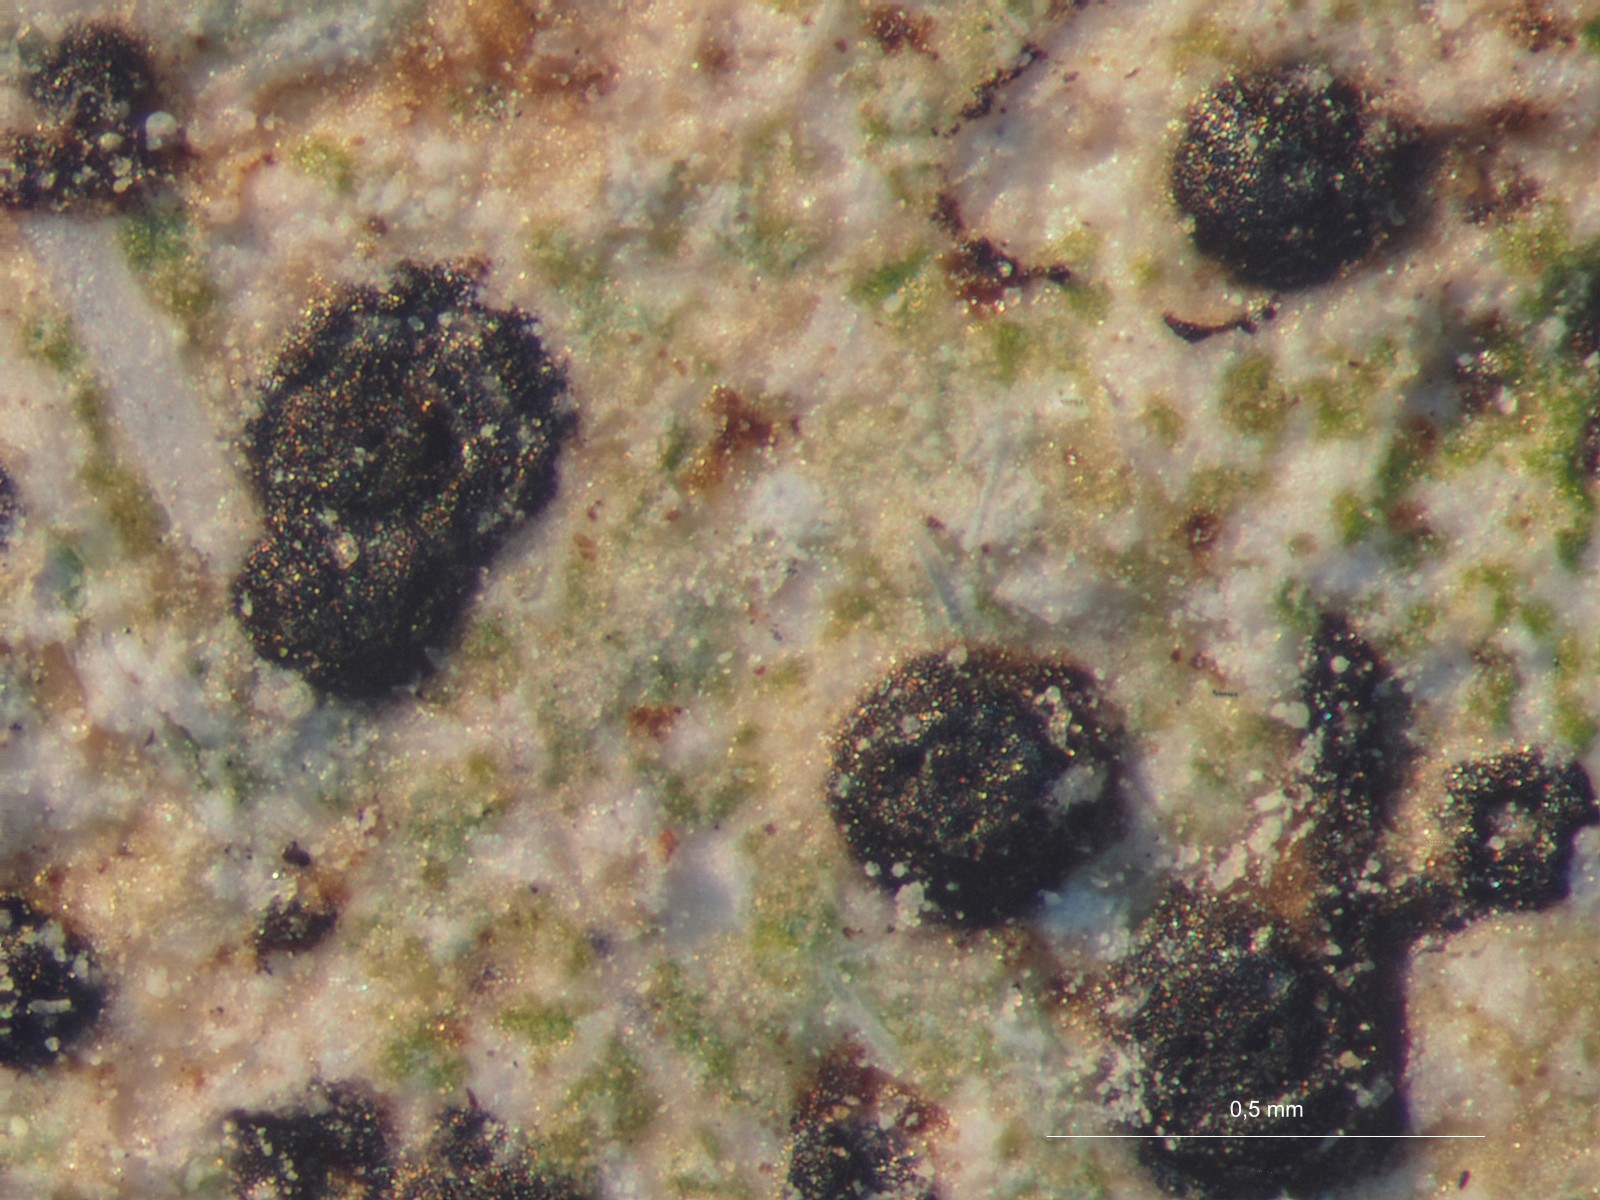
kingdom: Fungi
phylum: Ascomycota
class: Eurotiomycetes
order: Verrucariales
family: Verrucariaceae
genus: Parabagliettoa
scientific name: Parabagliettoa dufourii
